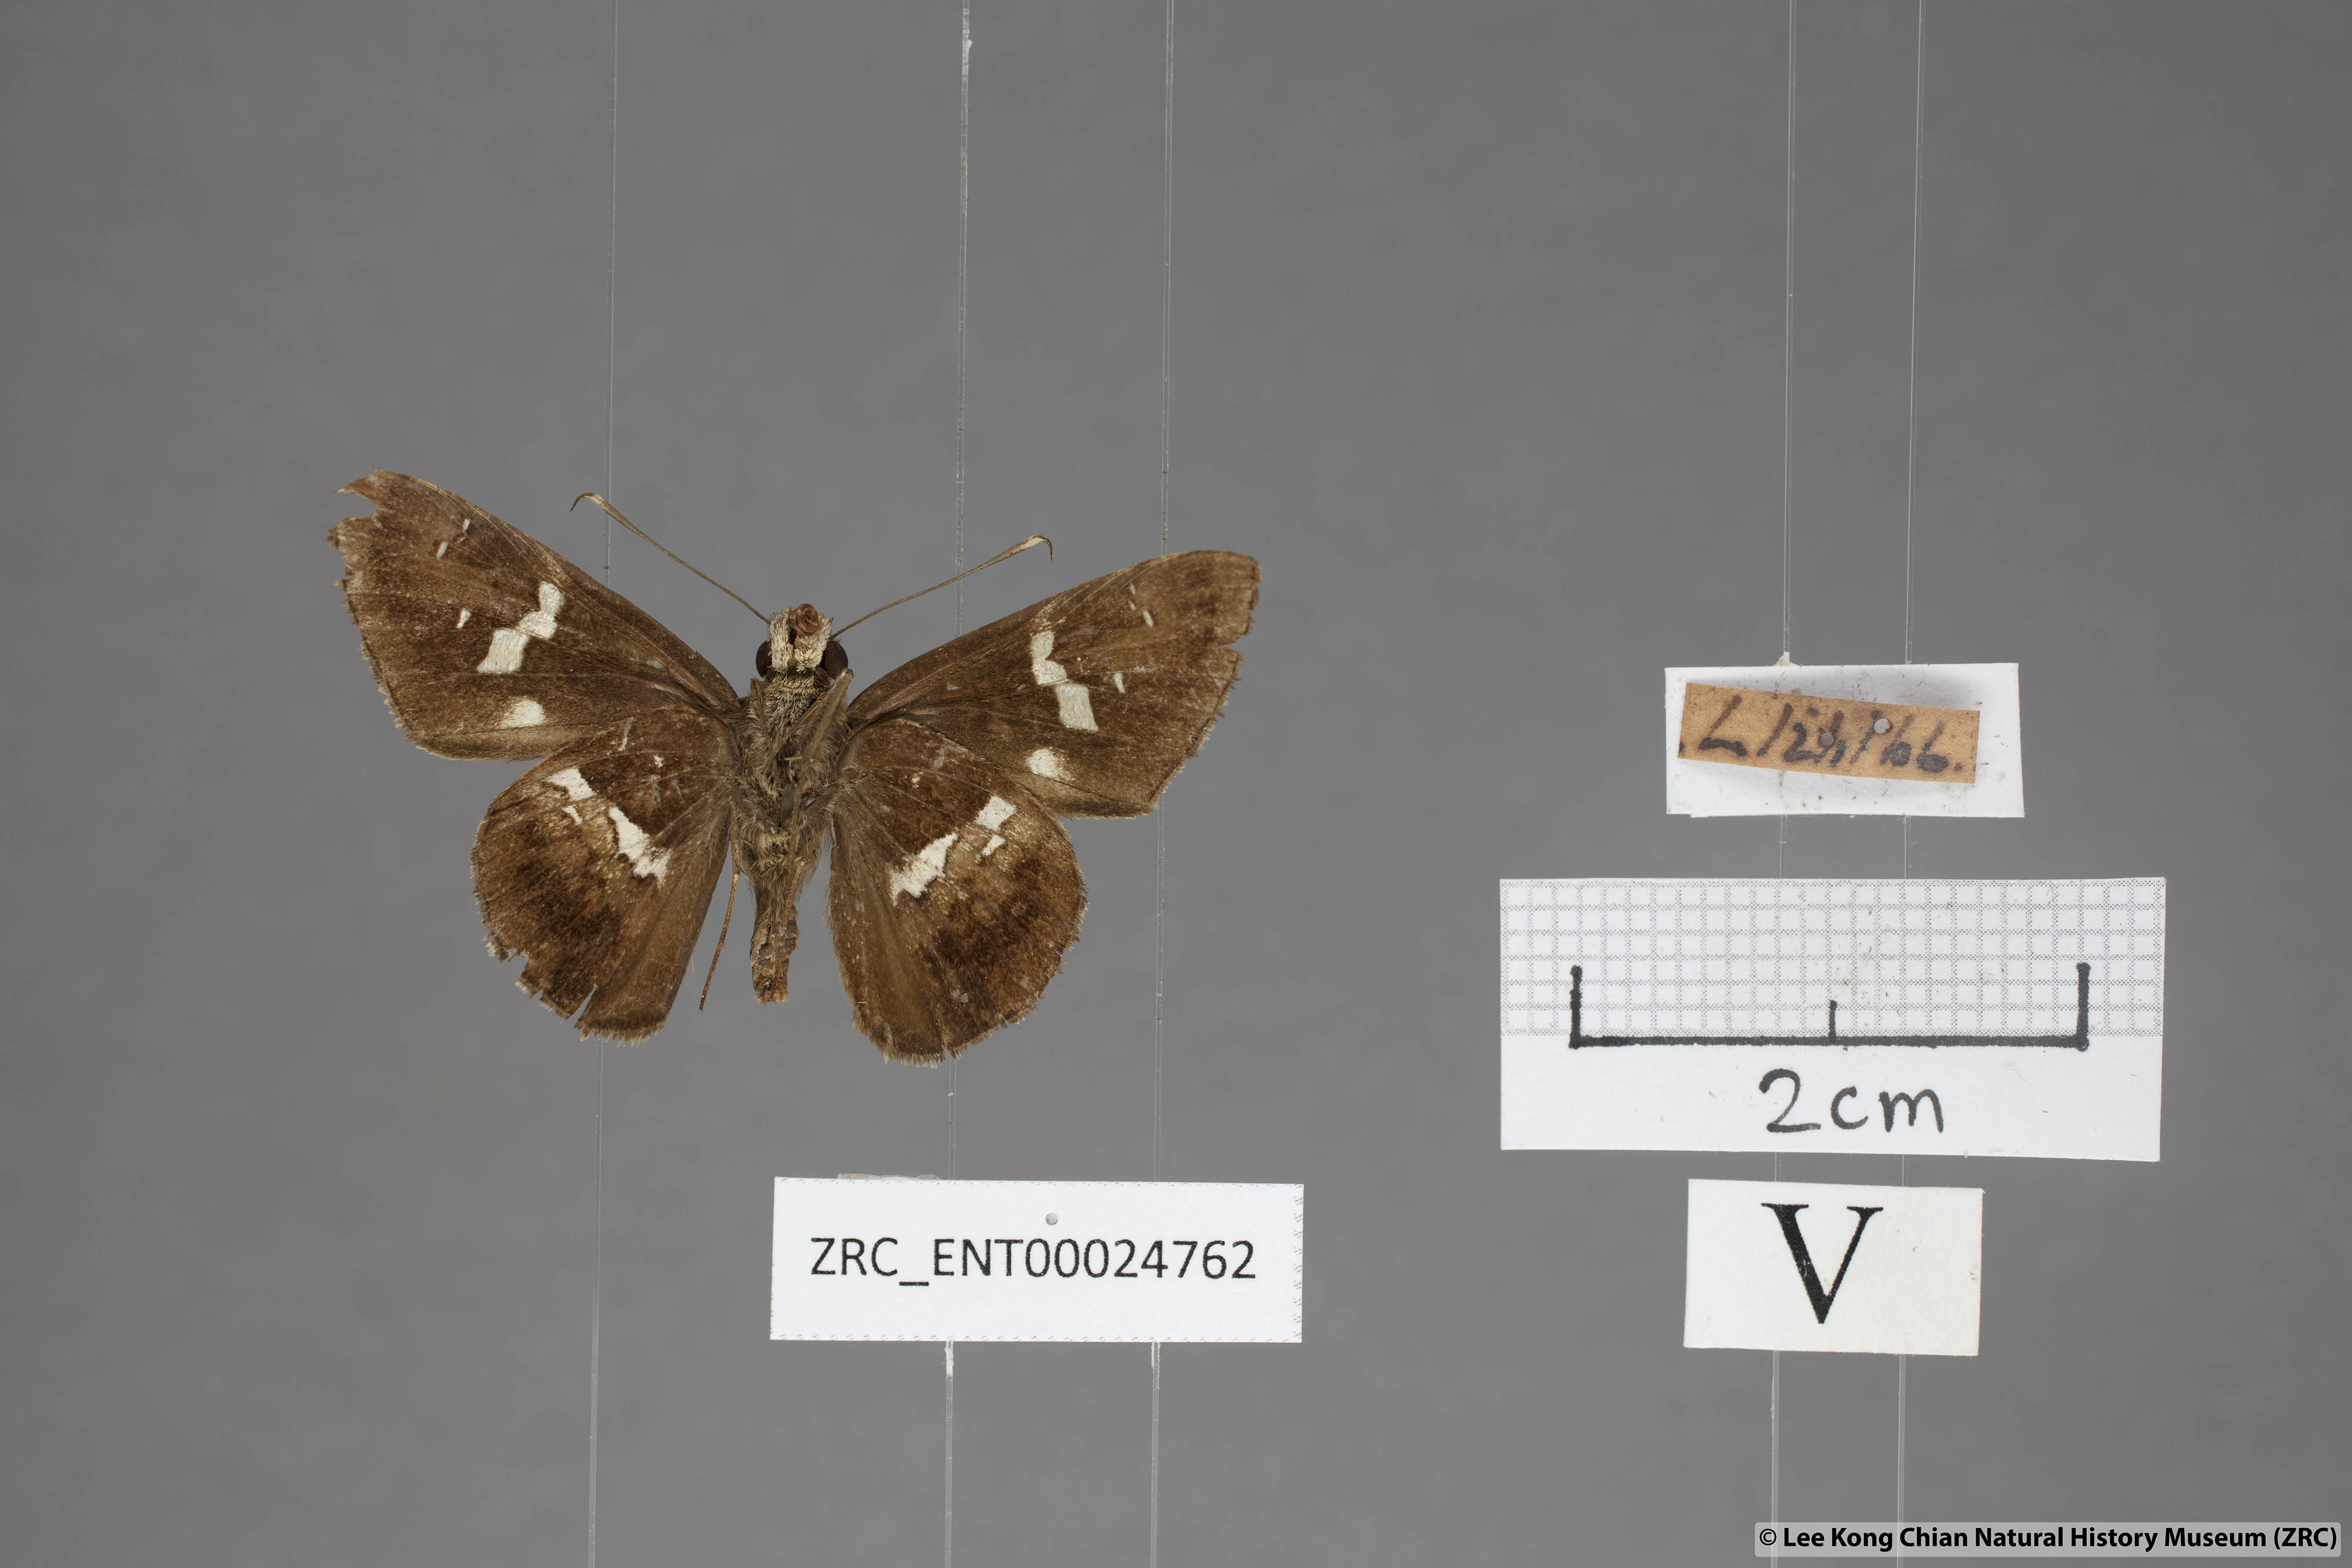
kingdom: Animalia
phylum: Arthropoda
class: Insecta
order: Lepidoptera
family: Hesperiidae
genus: Hyarotis
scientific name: Hyarotis adrastus
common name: Tree flitter
